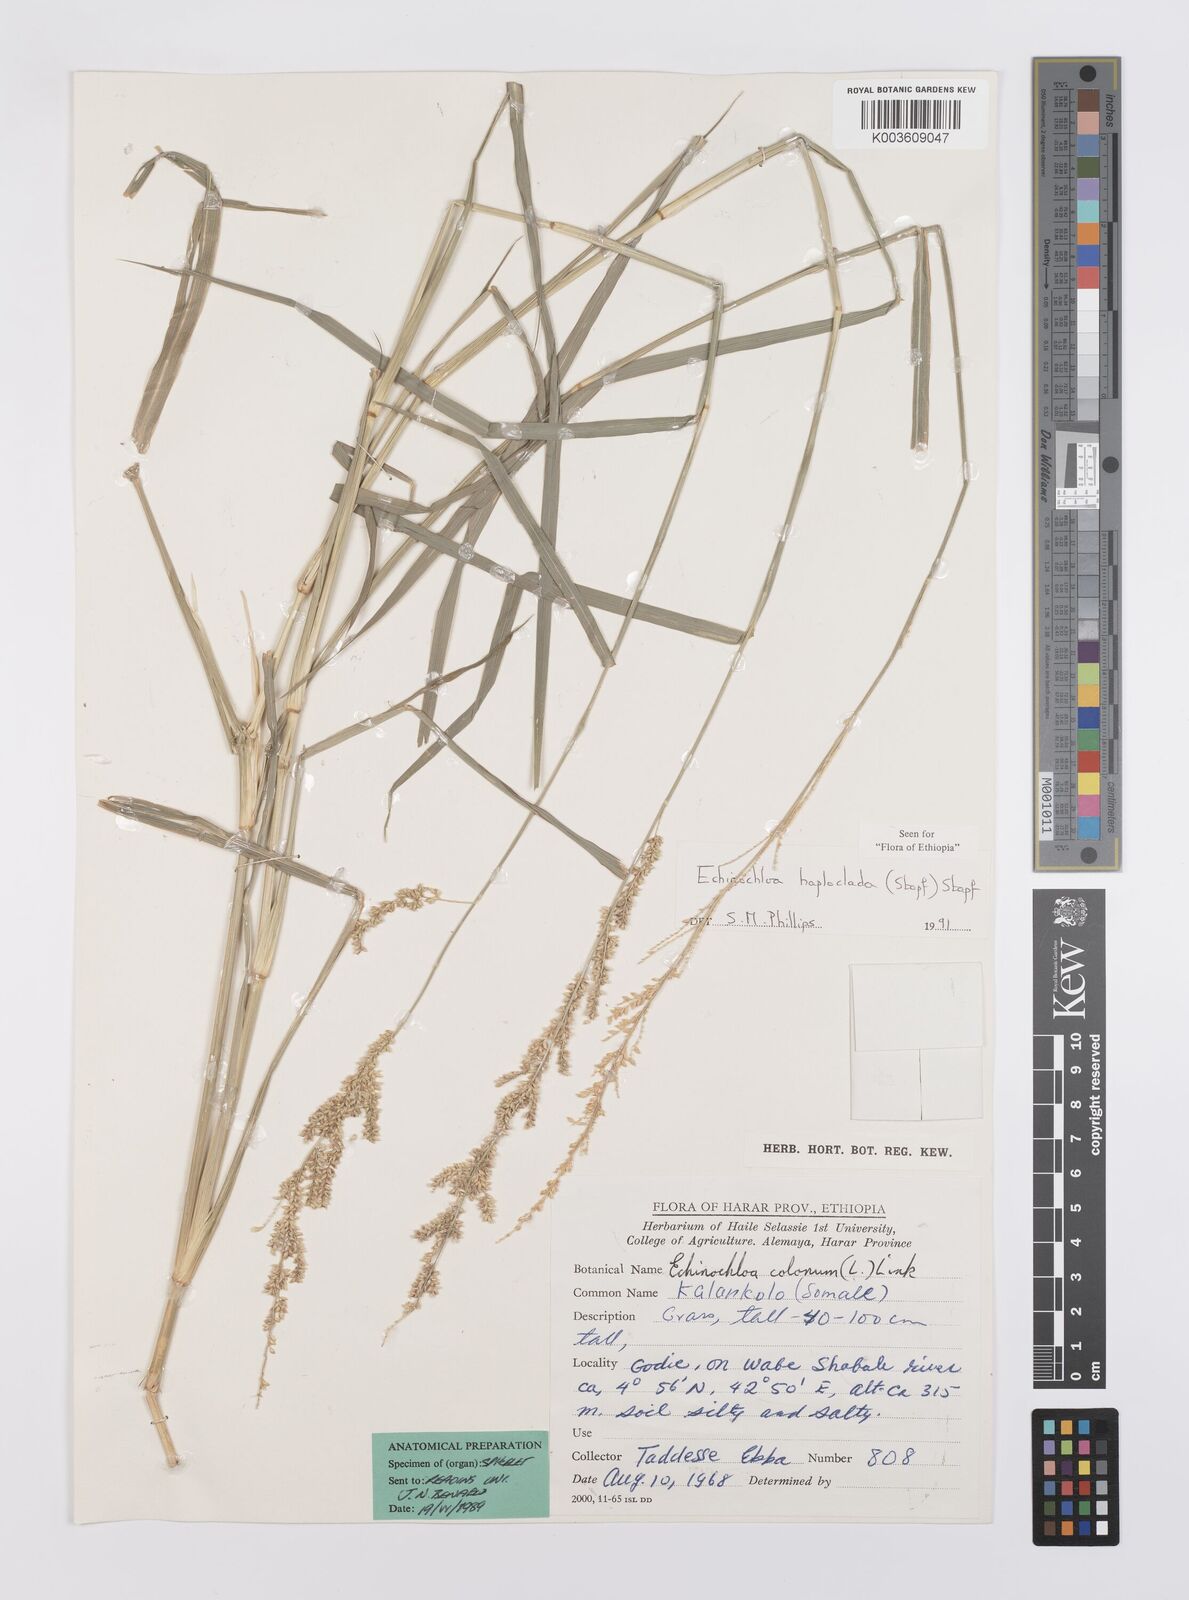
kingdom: Plantae
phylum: Tracheophyta
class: Liliopsida
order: Poales
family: Poaceae
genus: Echinochloa
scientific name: Echinochloa haploclada
